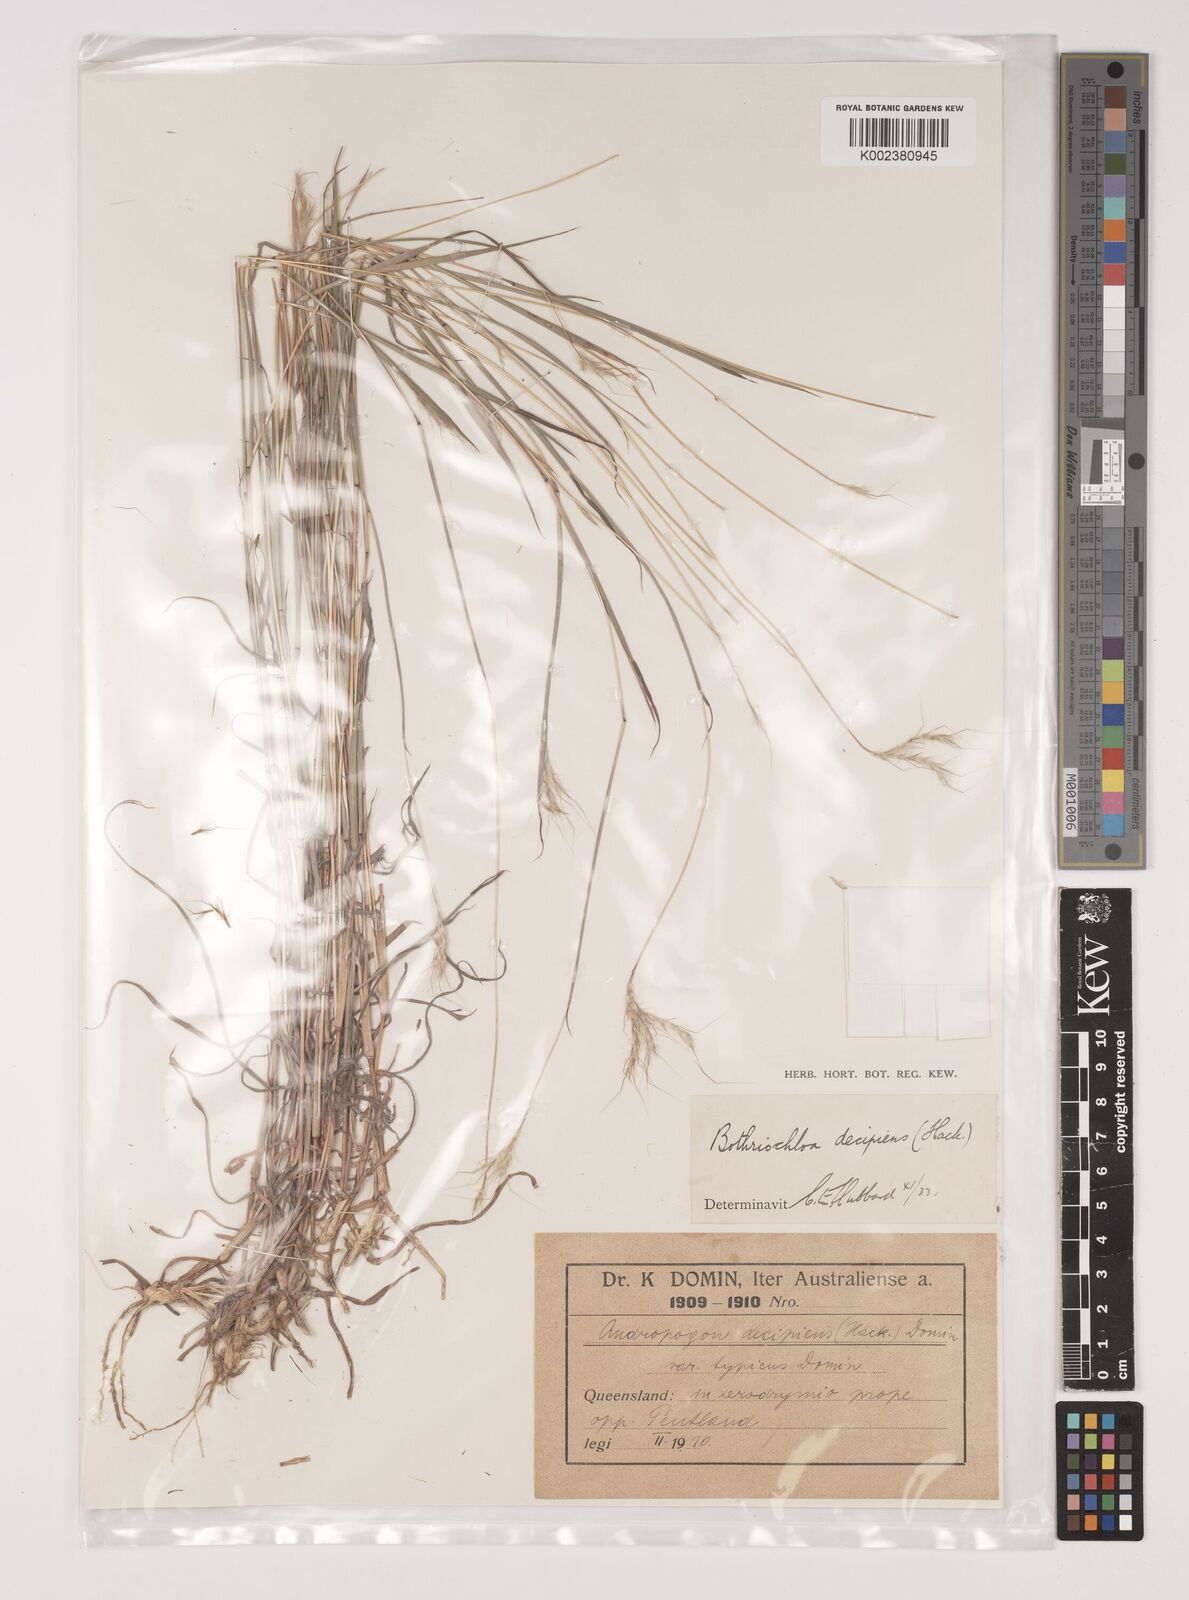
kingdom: Plantae
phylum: Tracheophyta
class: Liliopsida
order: Poales
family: Poaceae
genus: Bothriochloa
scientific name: Bothriochloa decipiens
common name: Pitted-bluegrass
